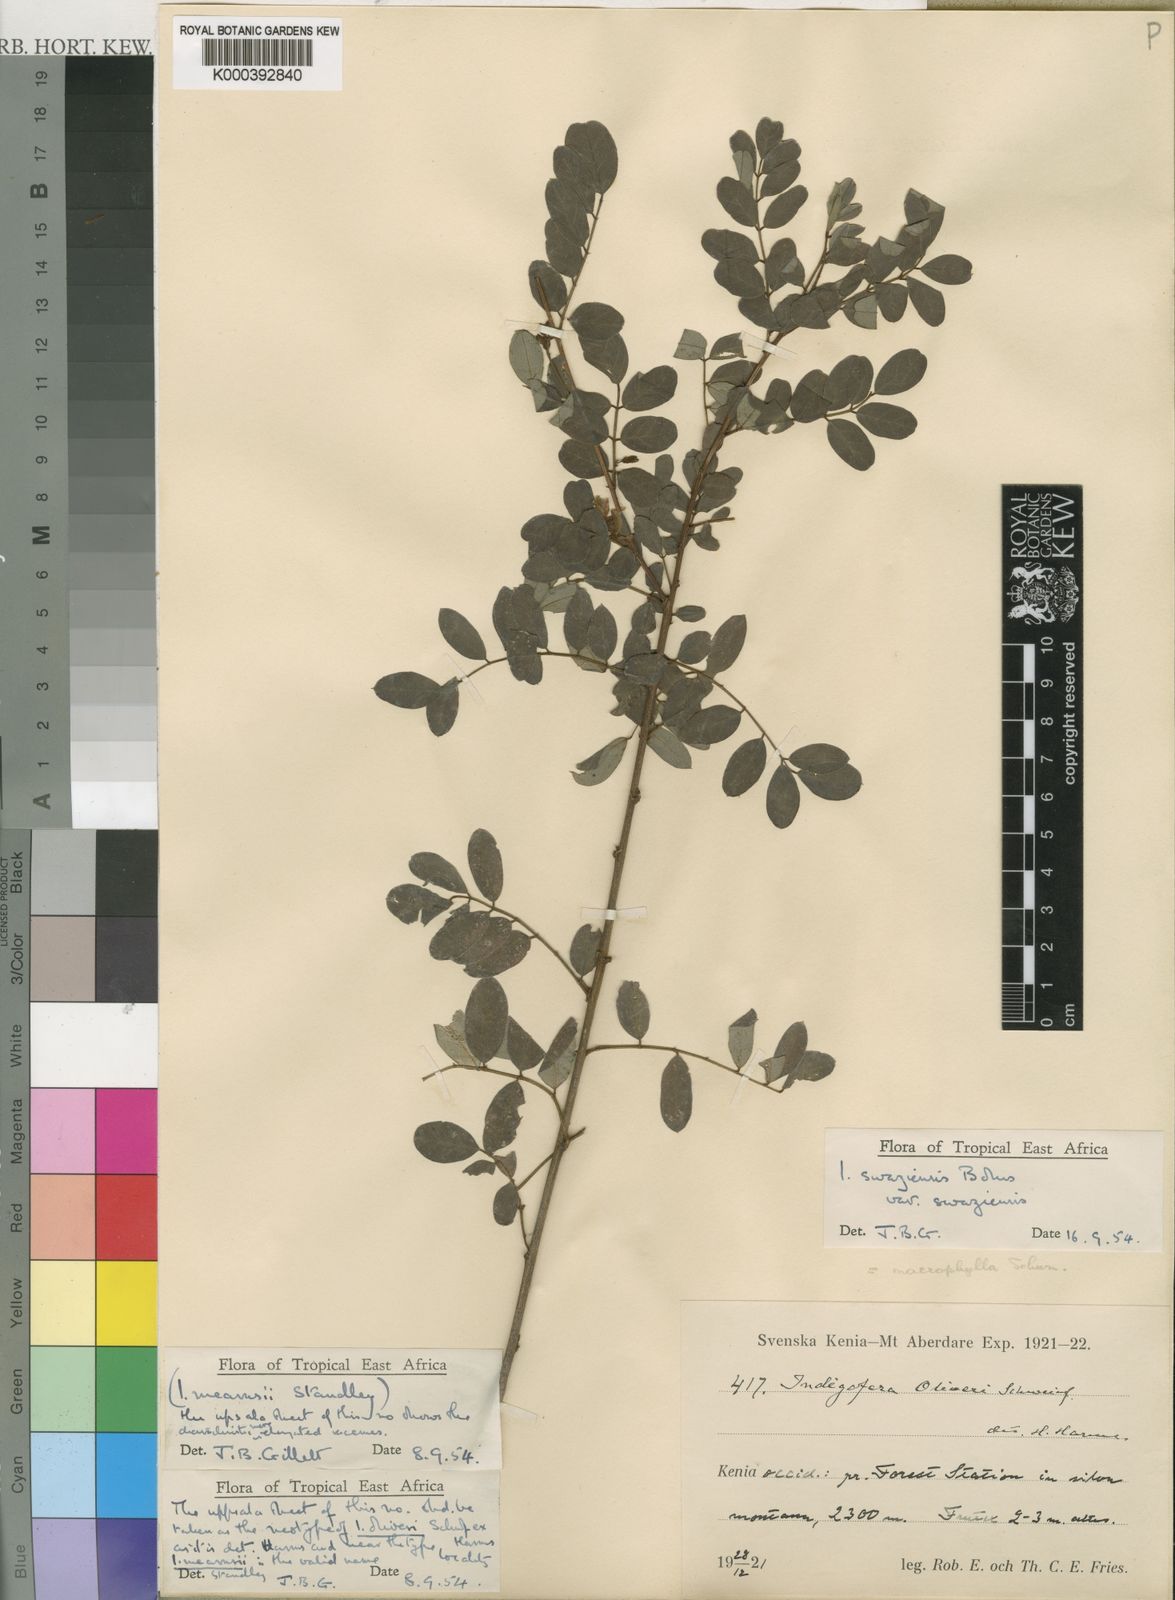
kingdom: Plantae
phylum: Tracheophyta
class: Magnoliopsida
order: Fabales
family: Fabaceae
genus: Indigofera
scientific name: Indigofera swaziensis
